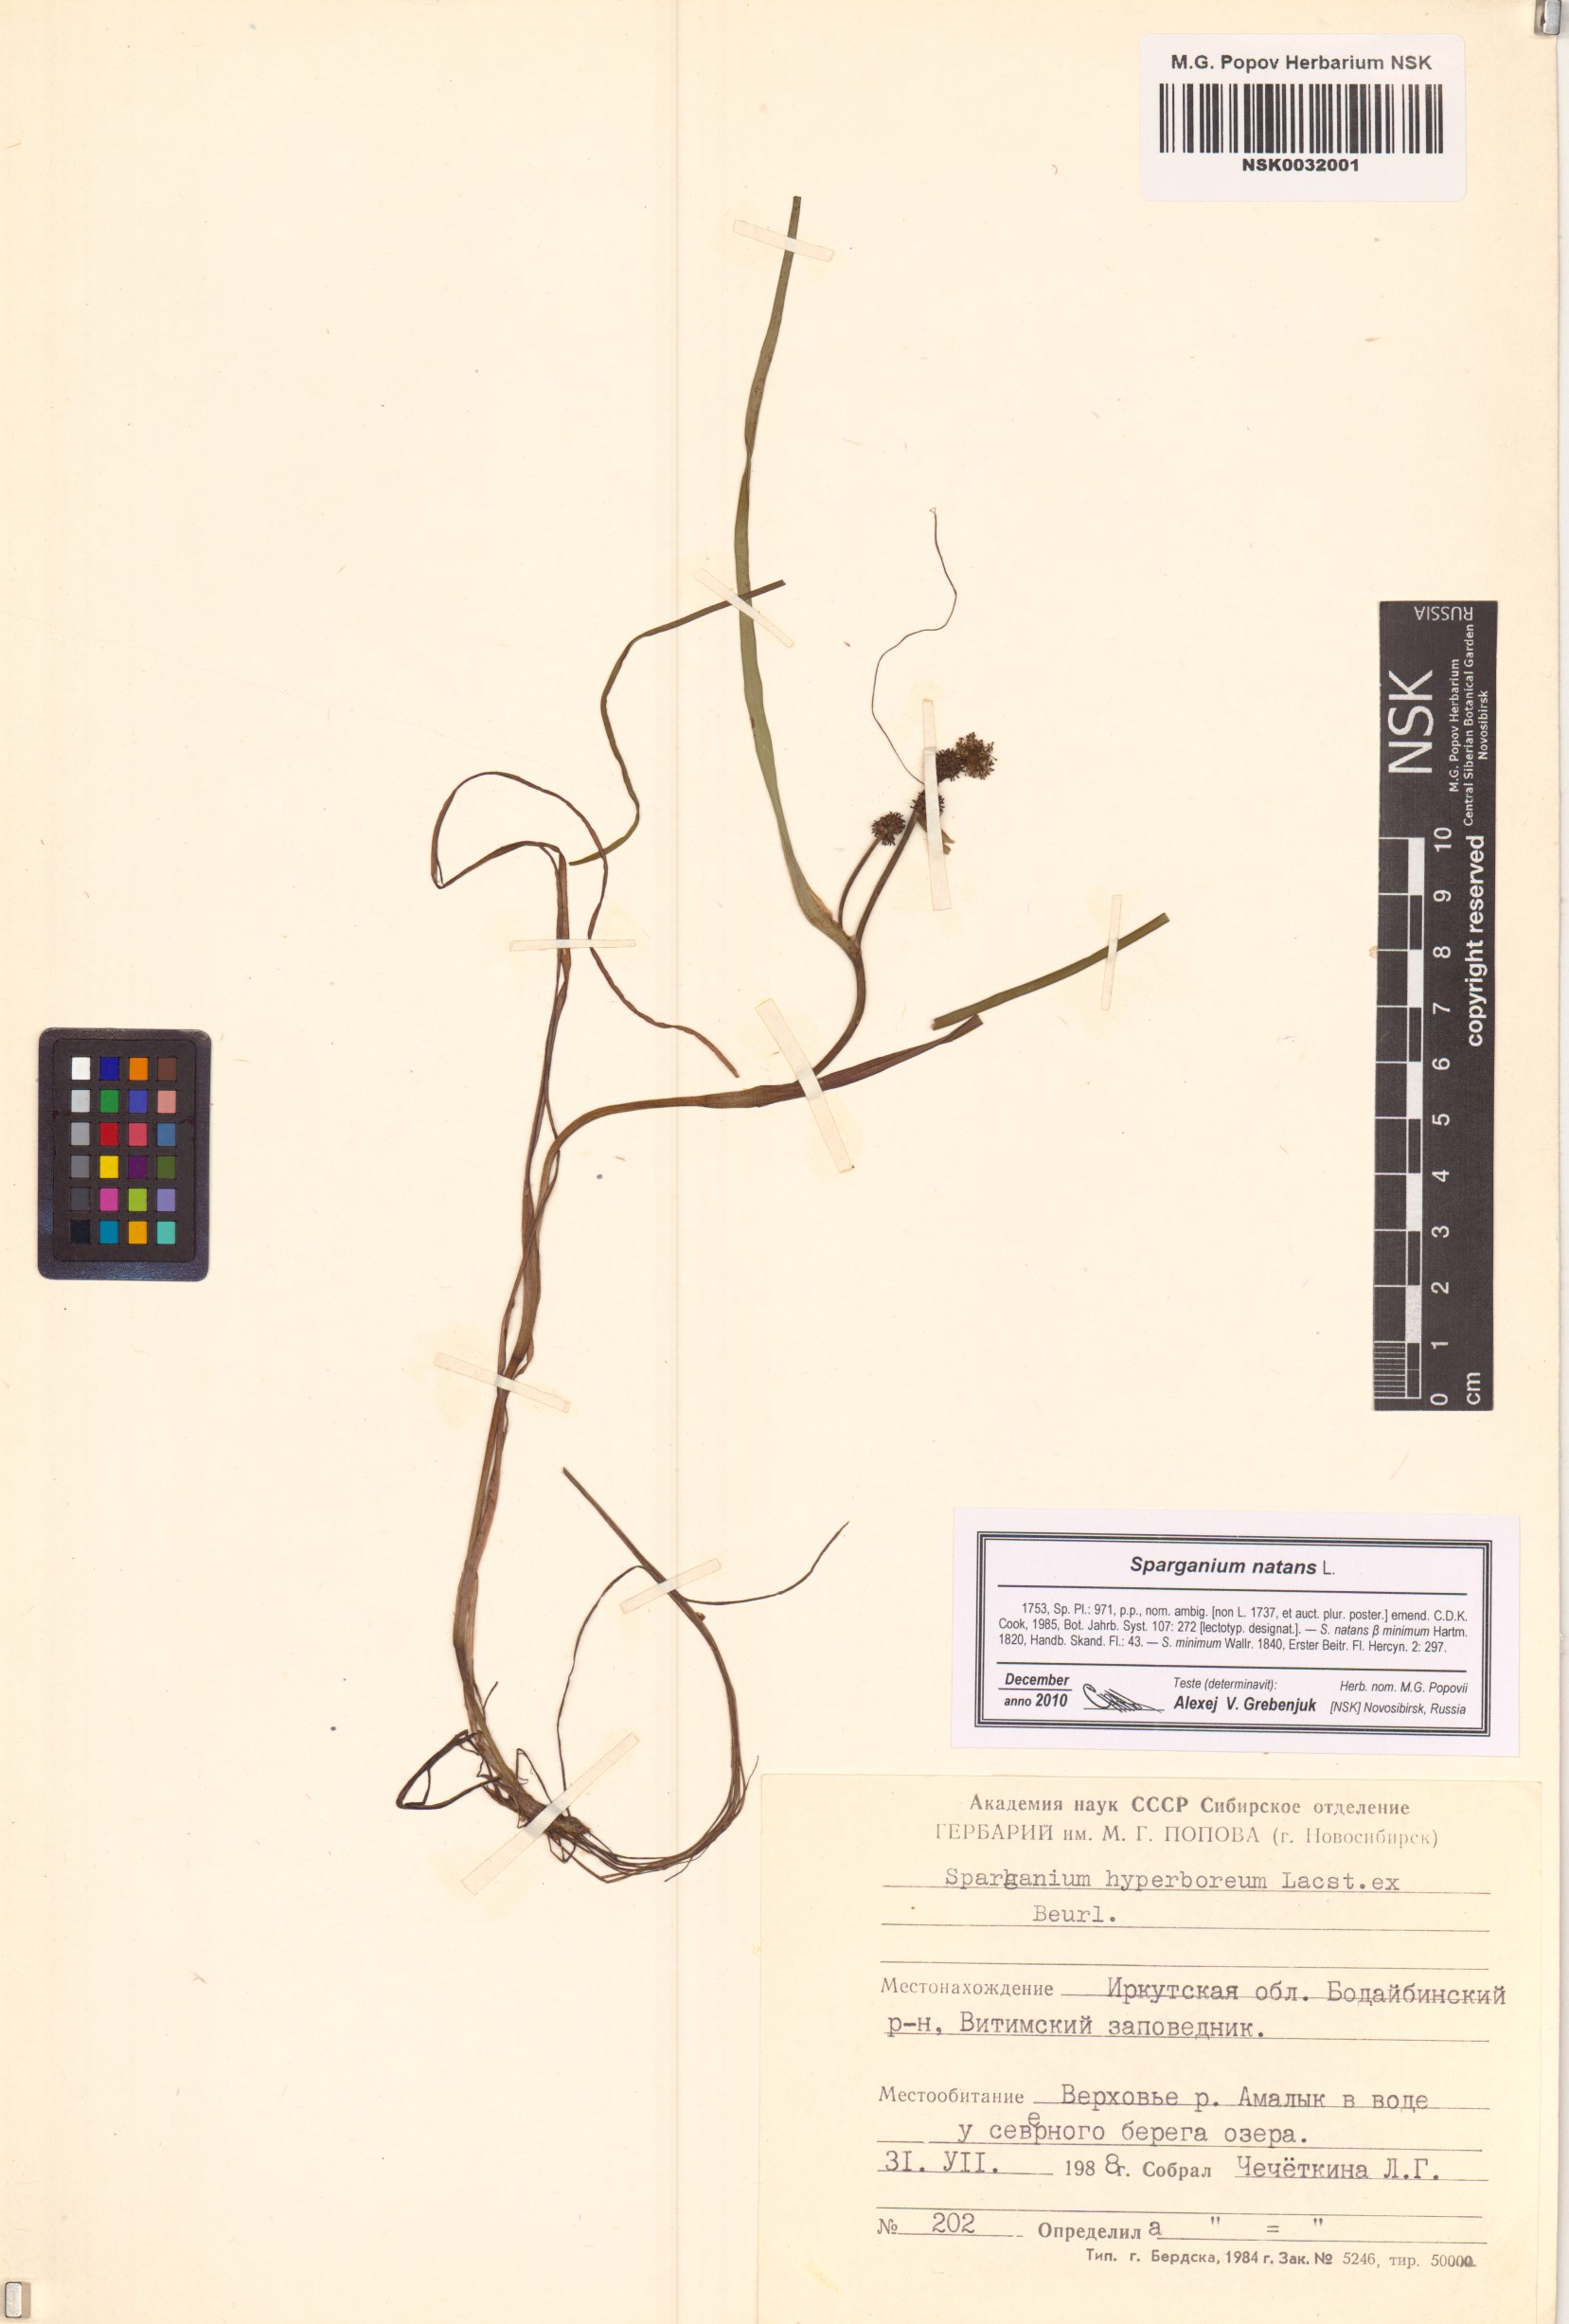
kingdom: Plantae
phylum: Tracheophyta
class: Liliopsida
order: Poales
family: Typhaceae
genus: Sparganium
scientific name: Sparganium natans
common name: Least bur-reed
